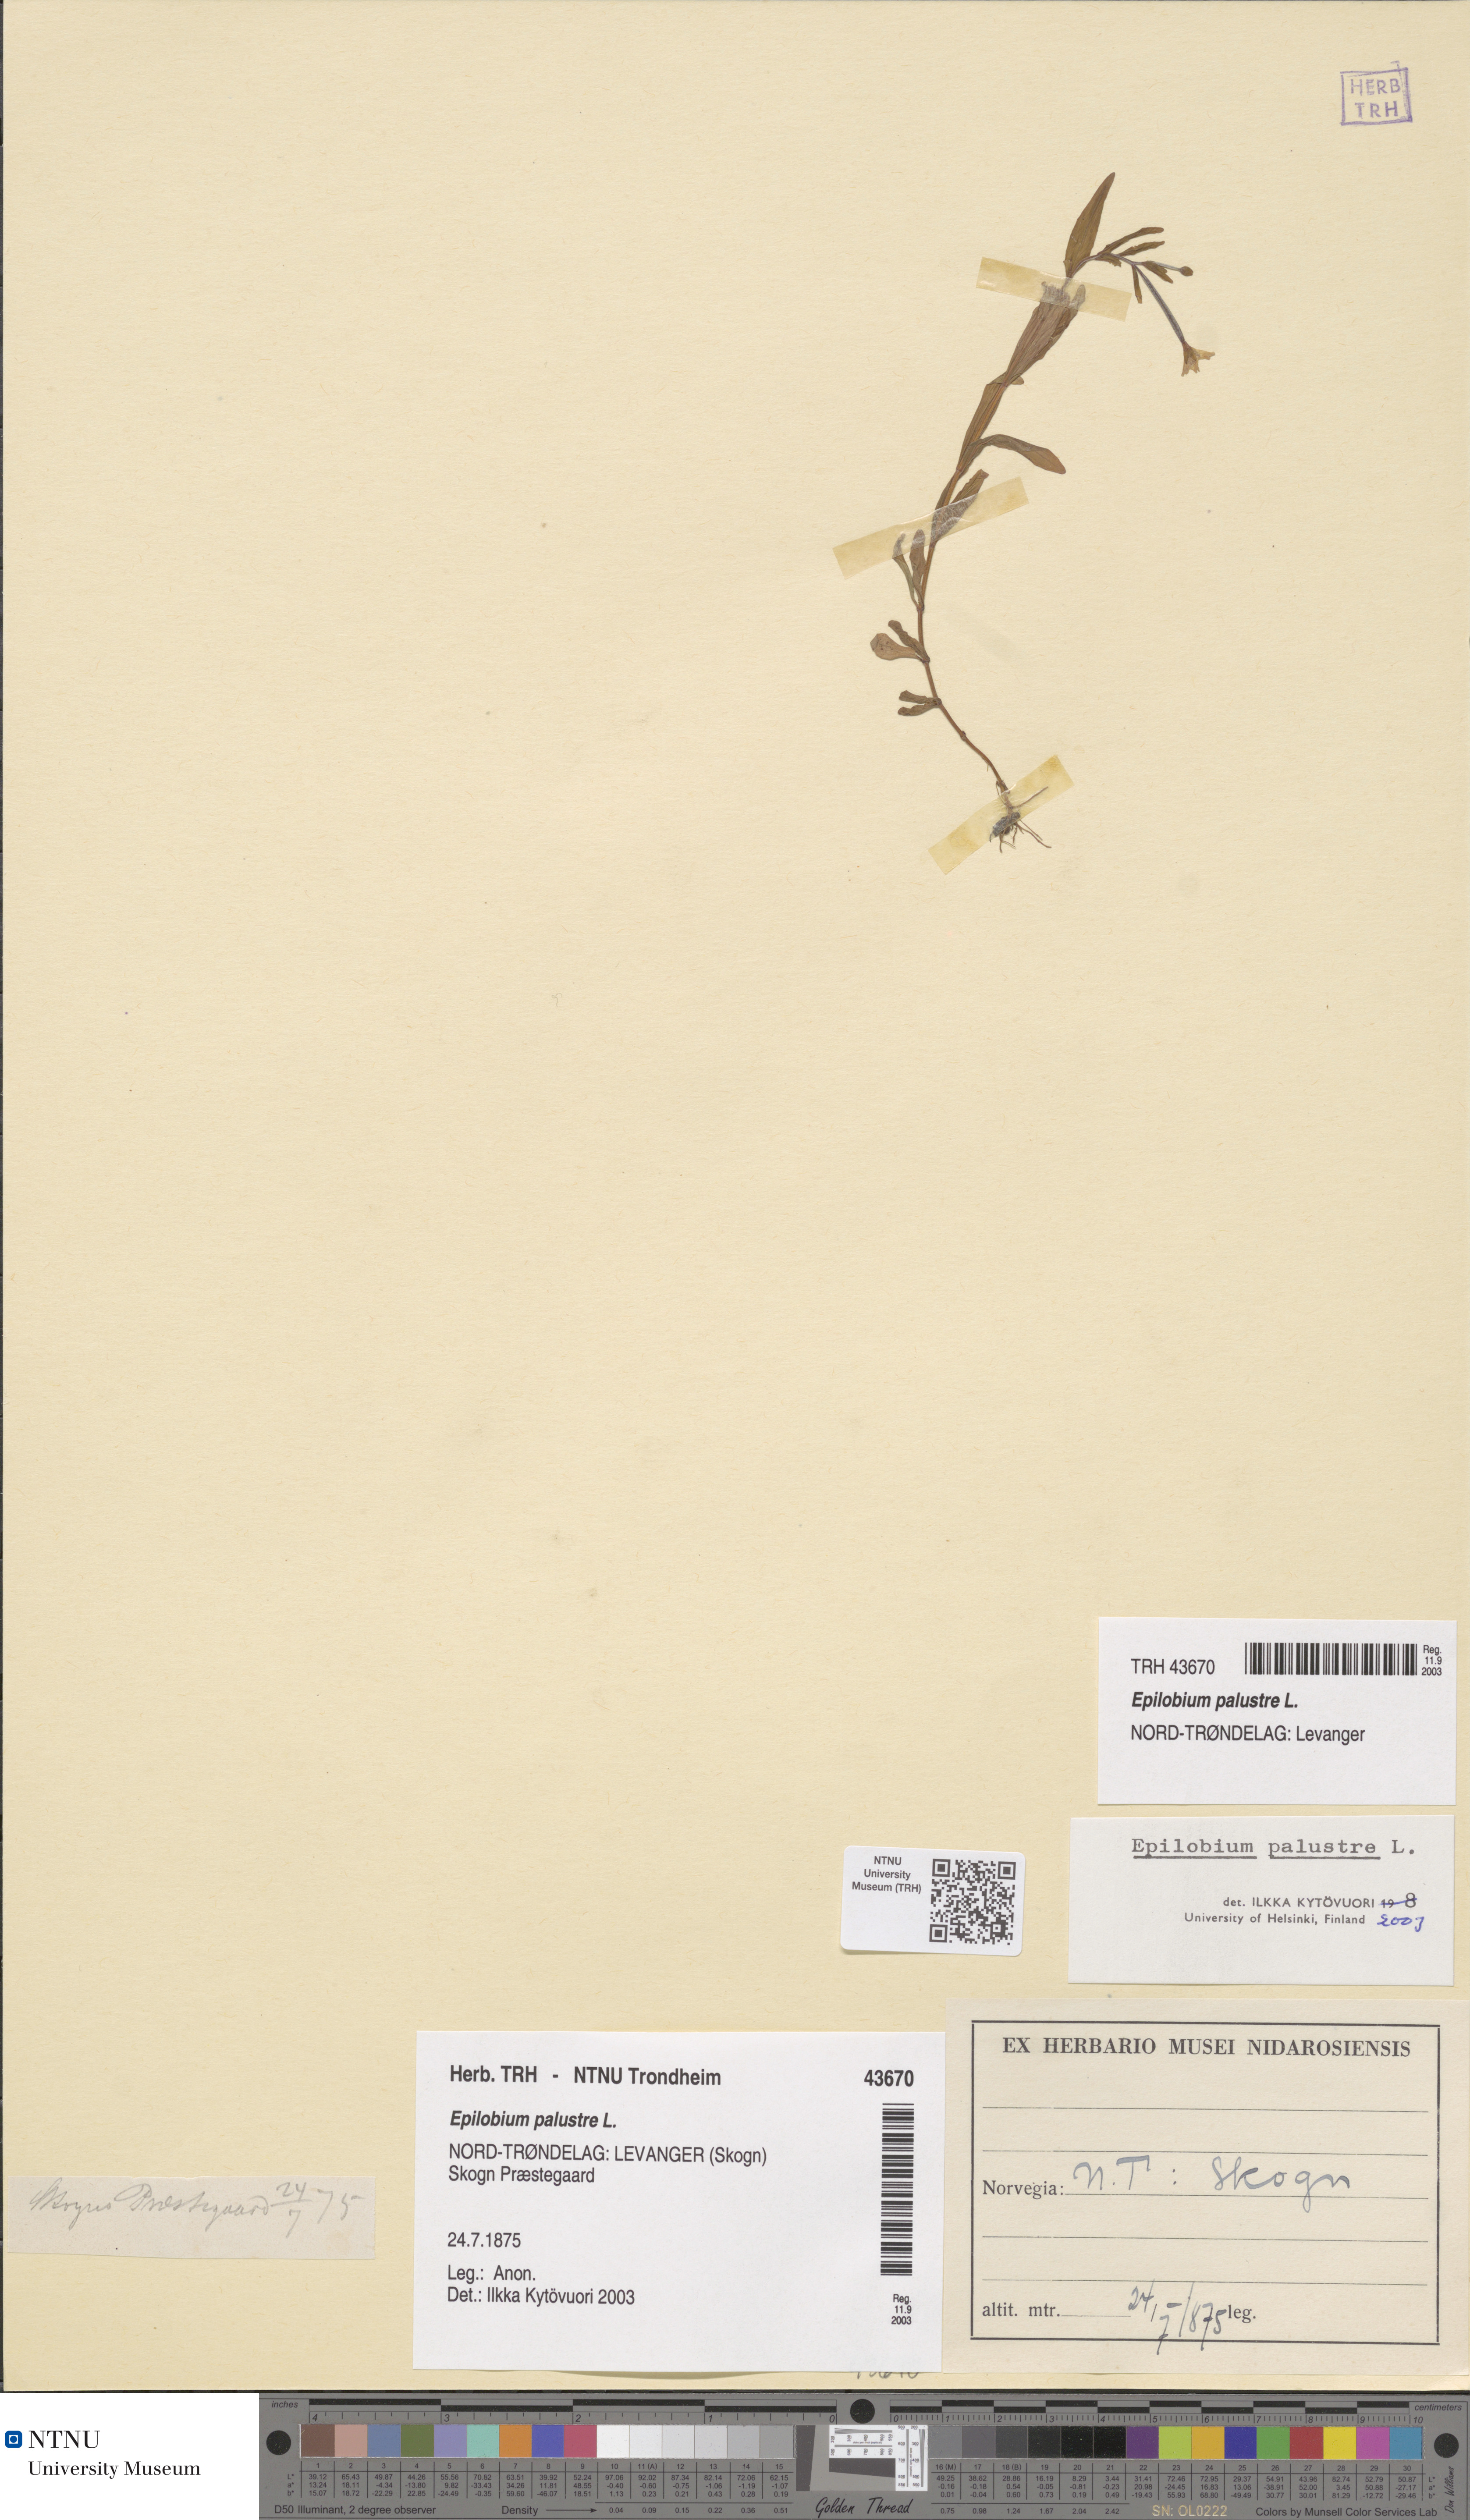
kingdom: Plantae
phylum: Tracheophyta
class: Magnoliopsida
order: Myrtales
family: Onagraceae
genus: Epilobium
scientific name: Epilobium palustre
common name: Marsh willowherb
